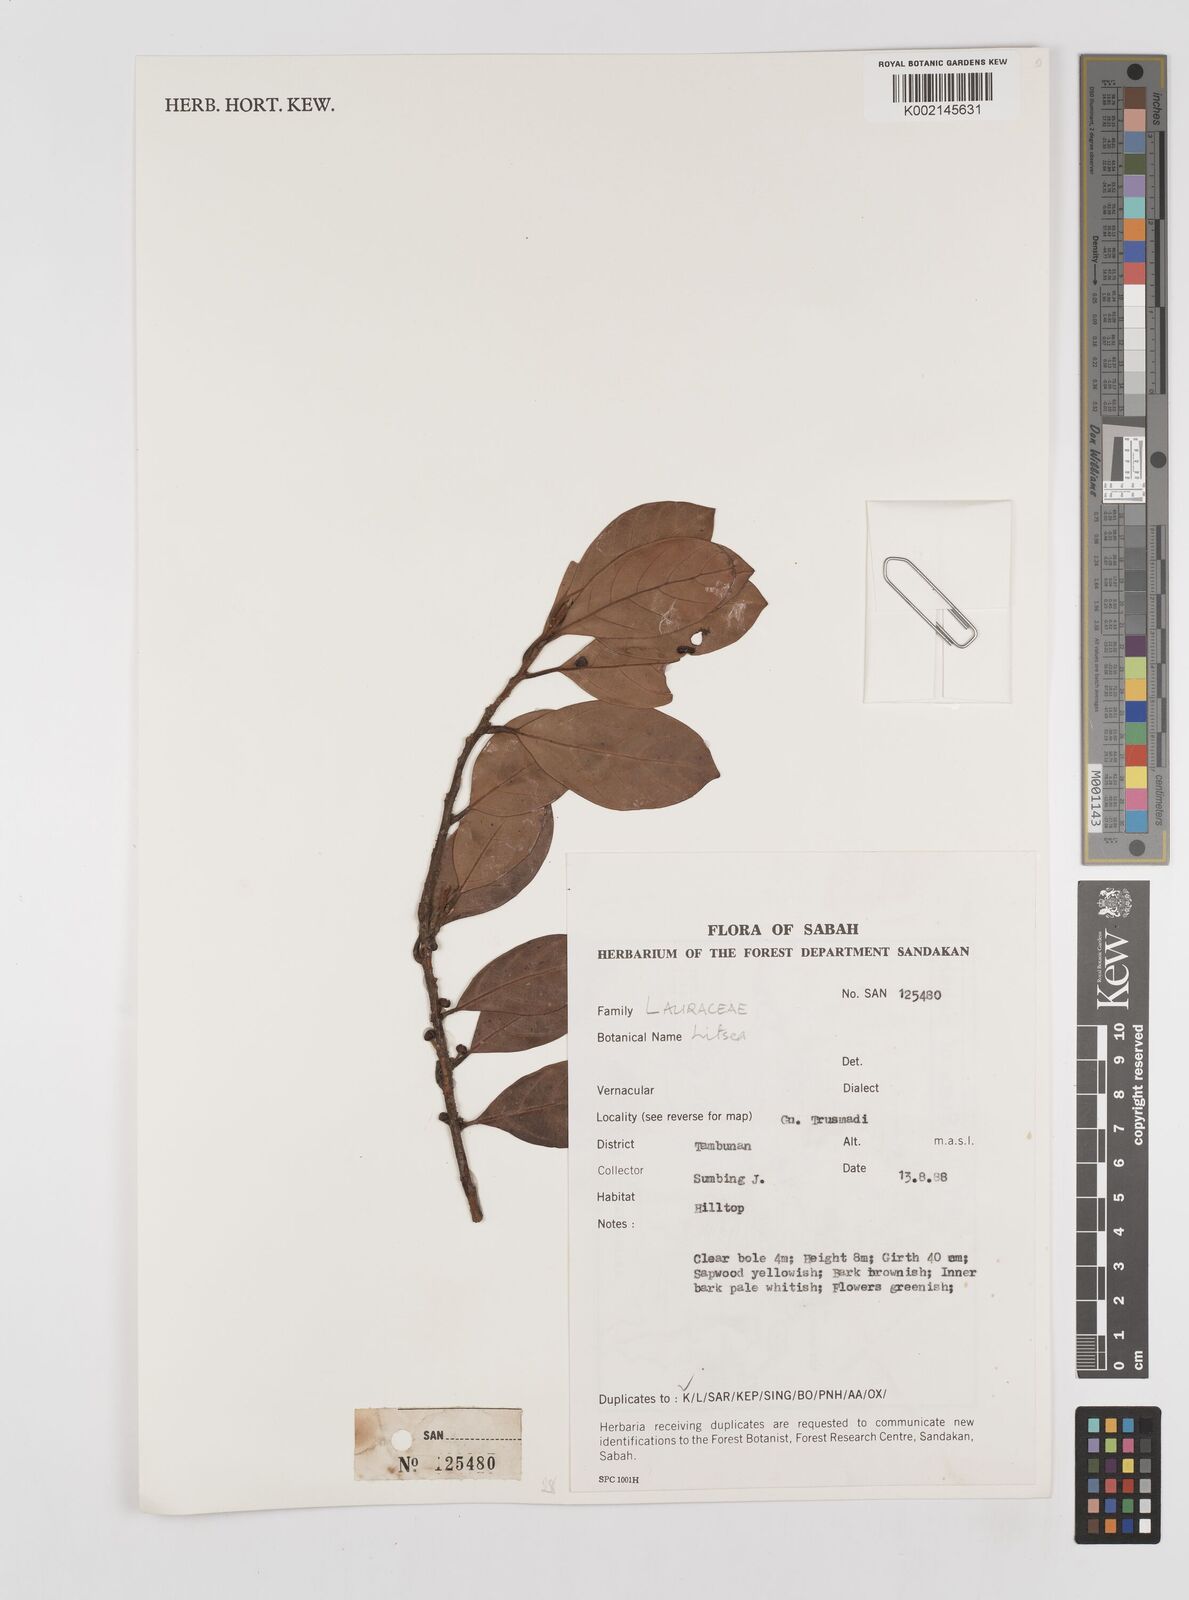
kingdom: Plantae
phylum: Tracheophyta
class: Magnoliopsida
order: Laurales
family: Lauraceae
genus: Litsea
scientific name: Litsea
